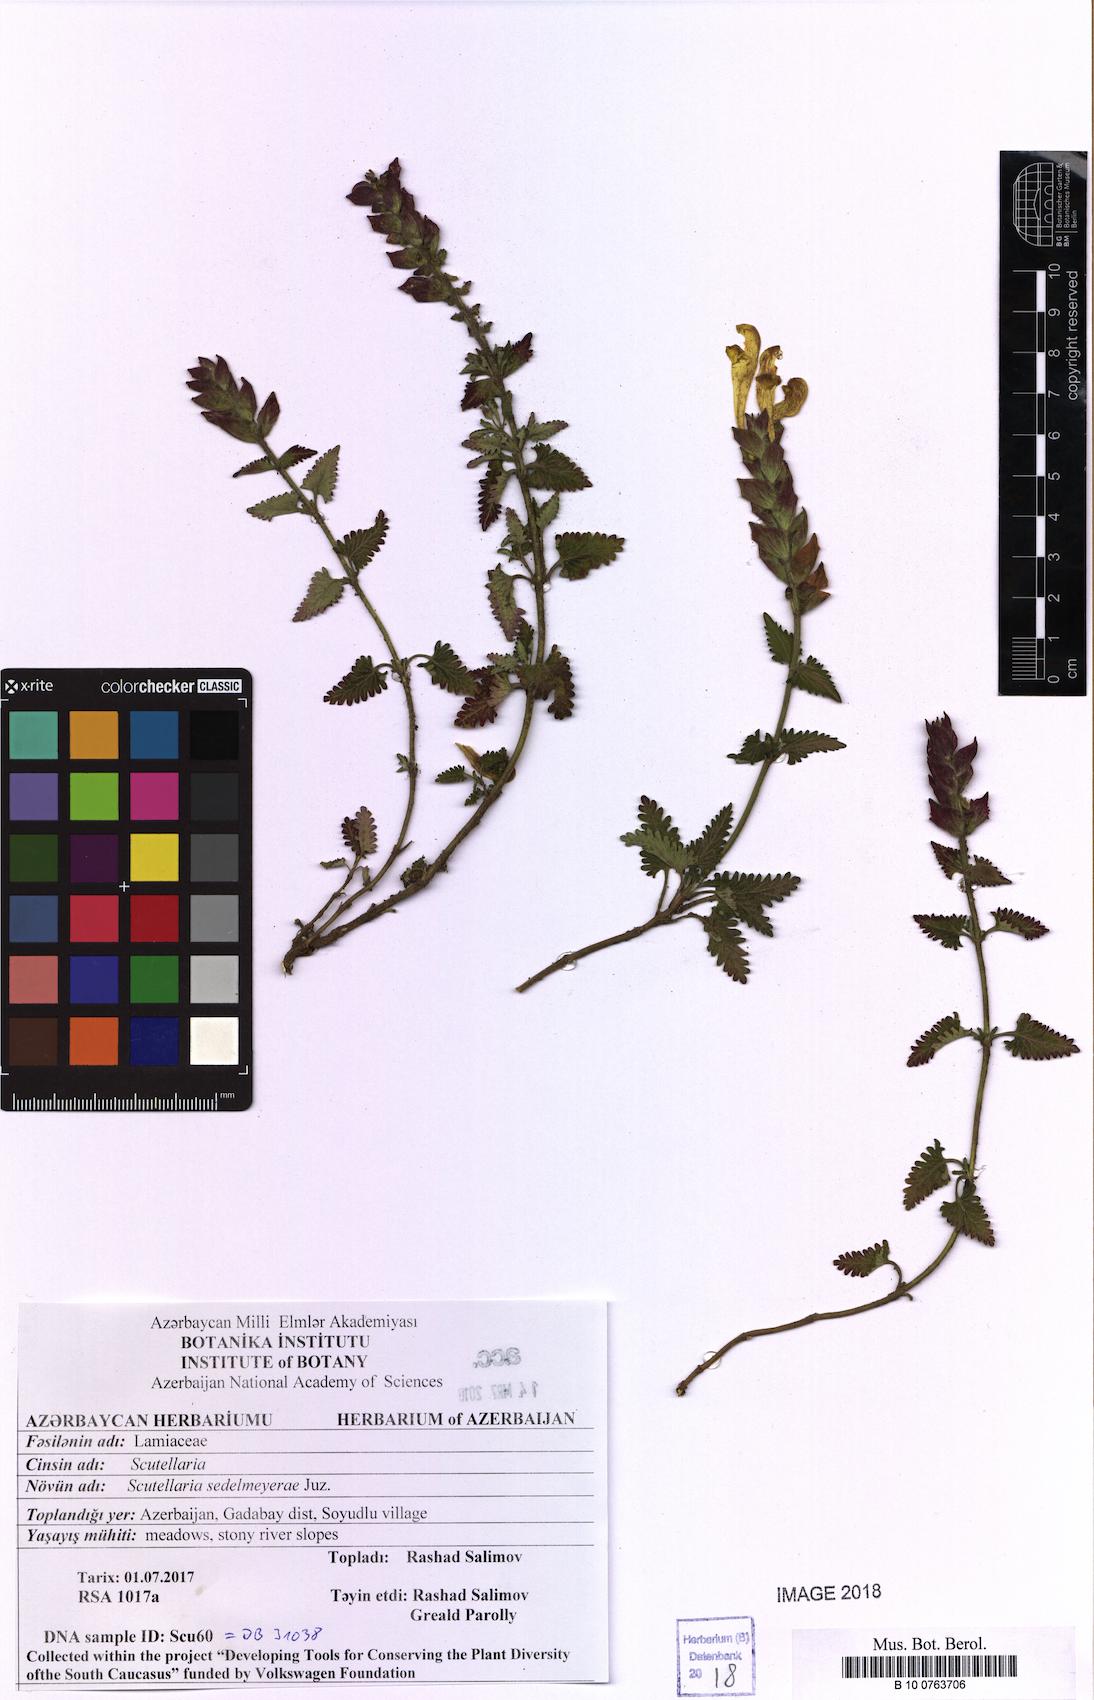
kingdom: Plantae
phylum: Tracheophyta
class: Magnoliopsida
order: Lamiales
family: Lamiaceae
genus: Scutellaria
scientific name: Scutellaria sedelmeyerae
